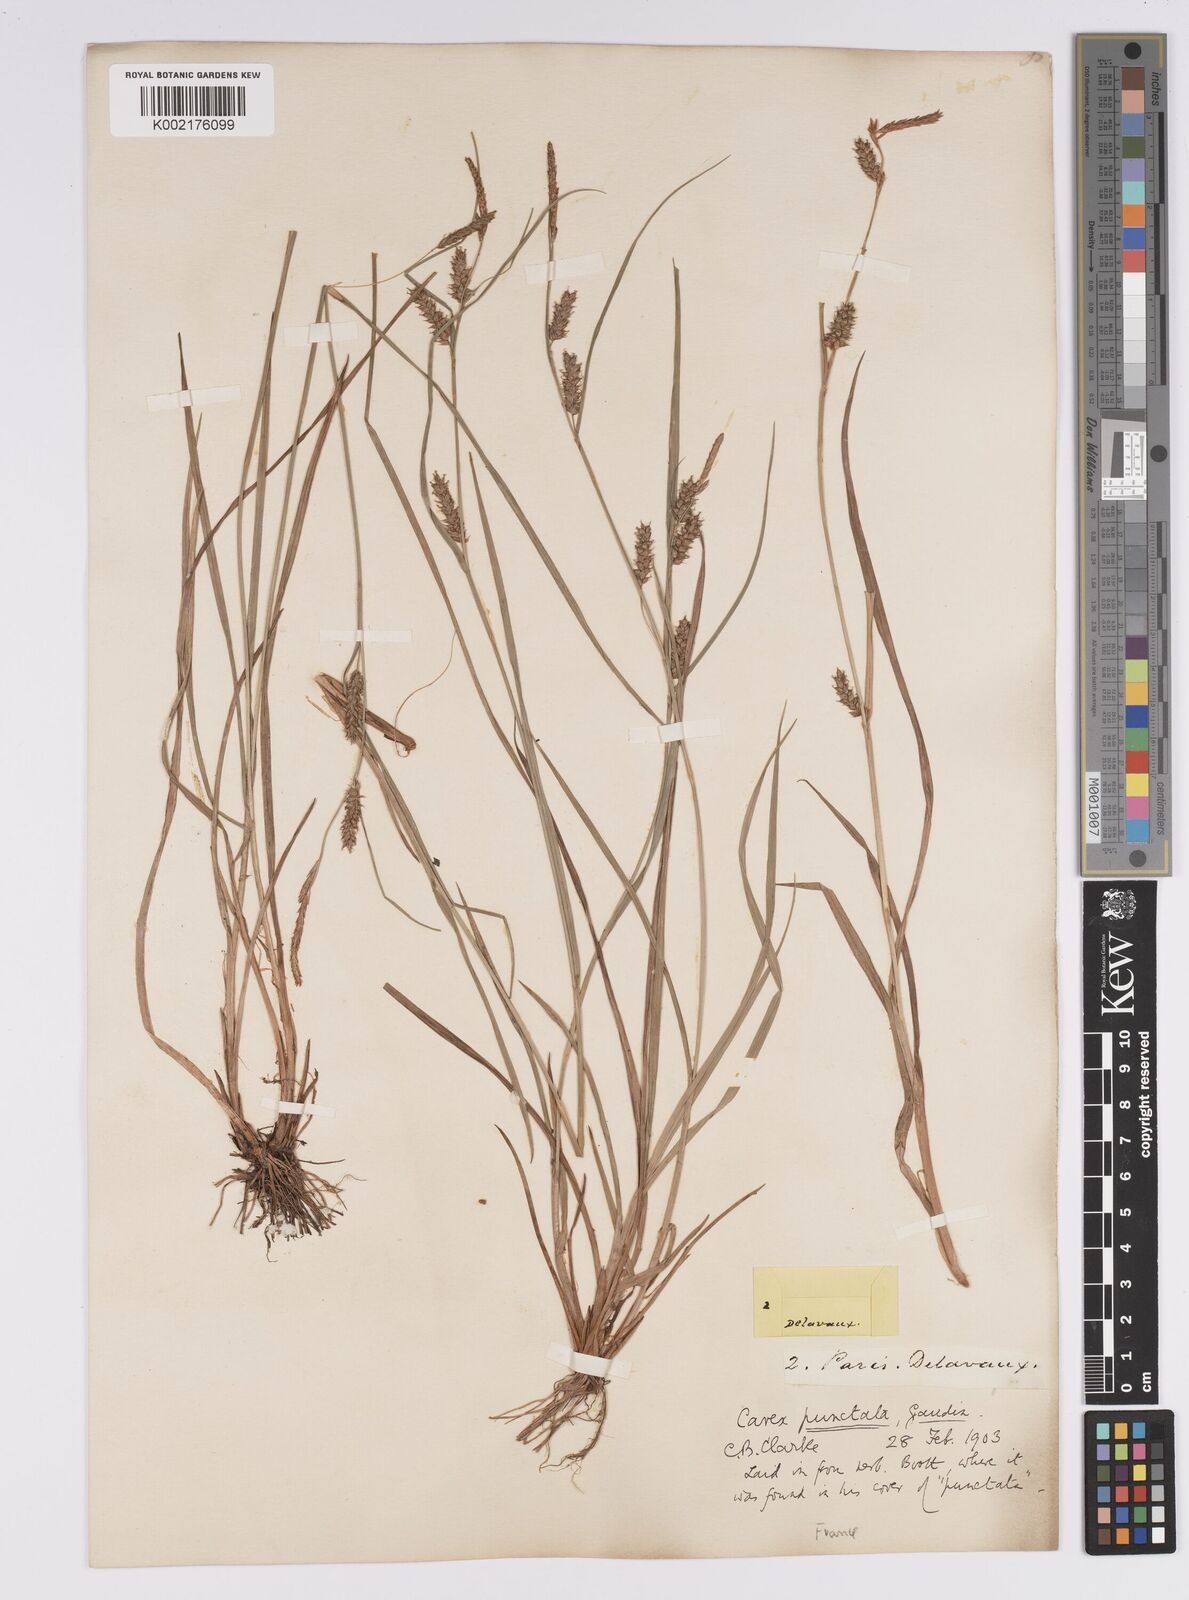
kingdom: Plantae
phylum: Tracheophyta
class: Liliopsida
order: Poales
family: Cyperaceae
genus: Carex
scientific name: Carex punctata
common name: Dotted sedge
